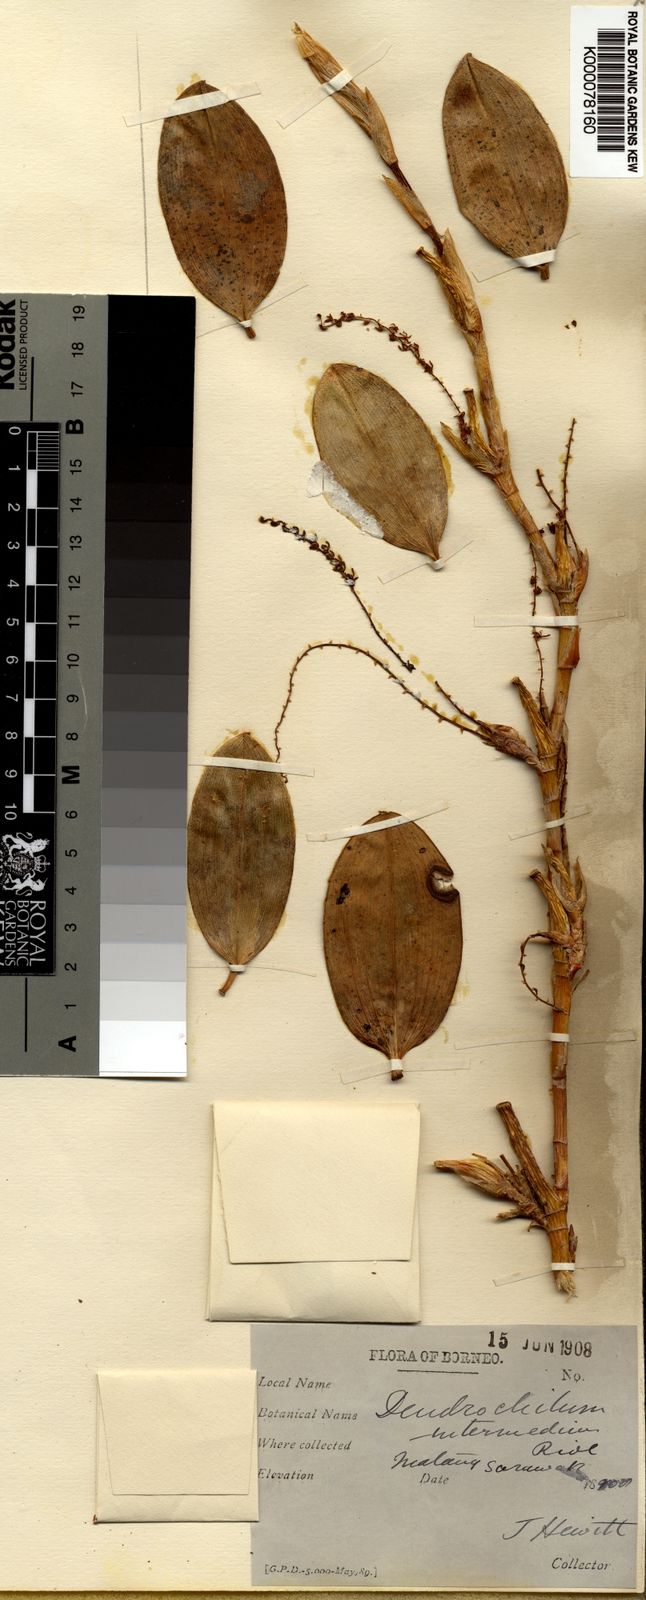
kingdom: Plantae
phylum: Tracheophyta
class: Liliopsida
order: Asparagales
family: Orchidaceae
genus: Coelogyne
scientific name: Coelogyne pallidiflavens
